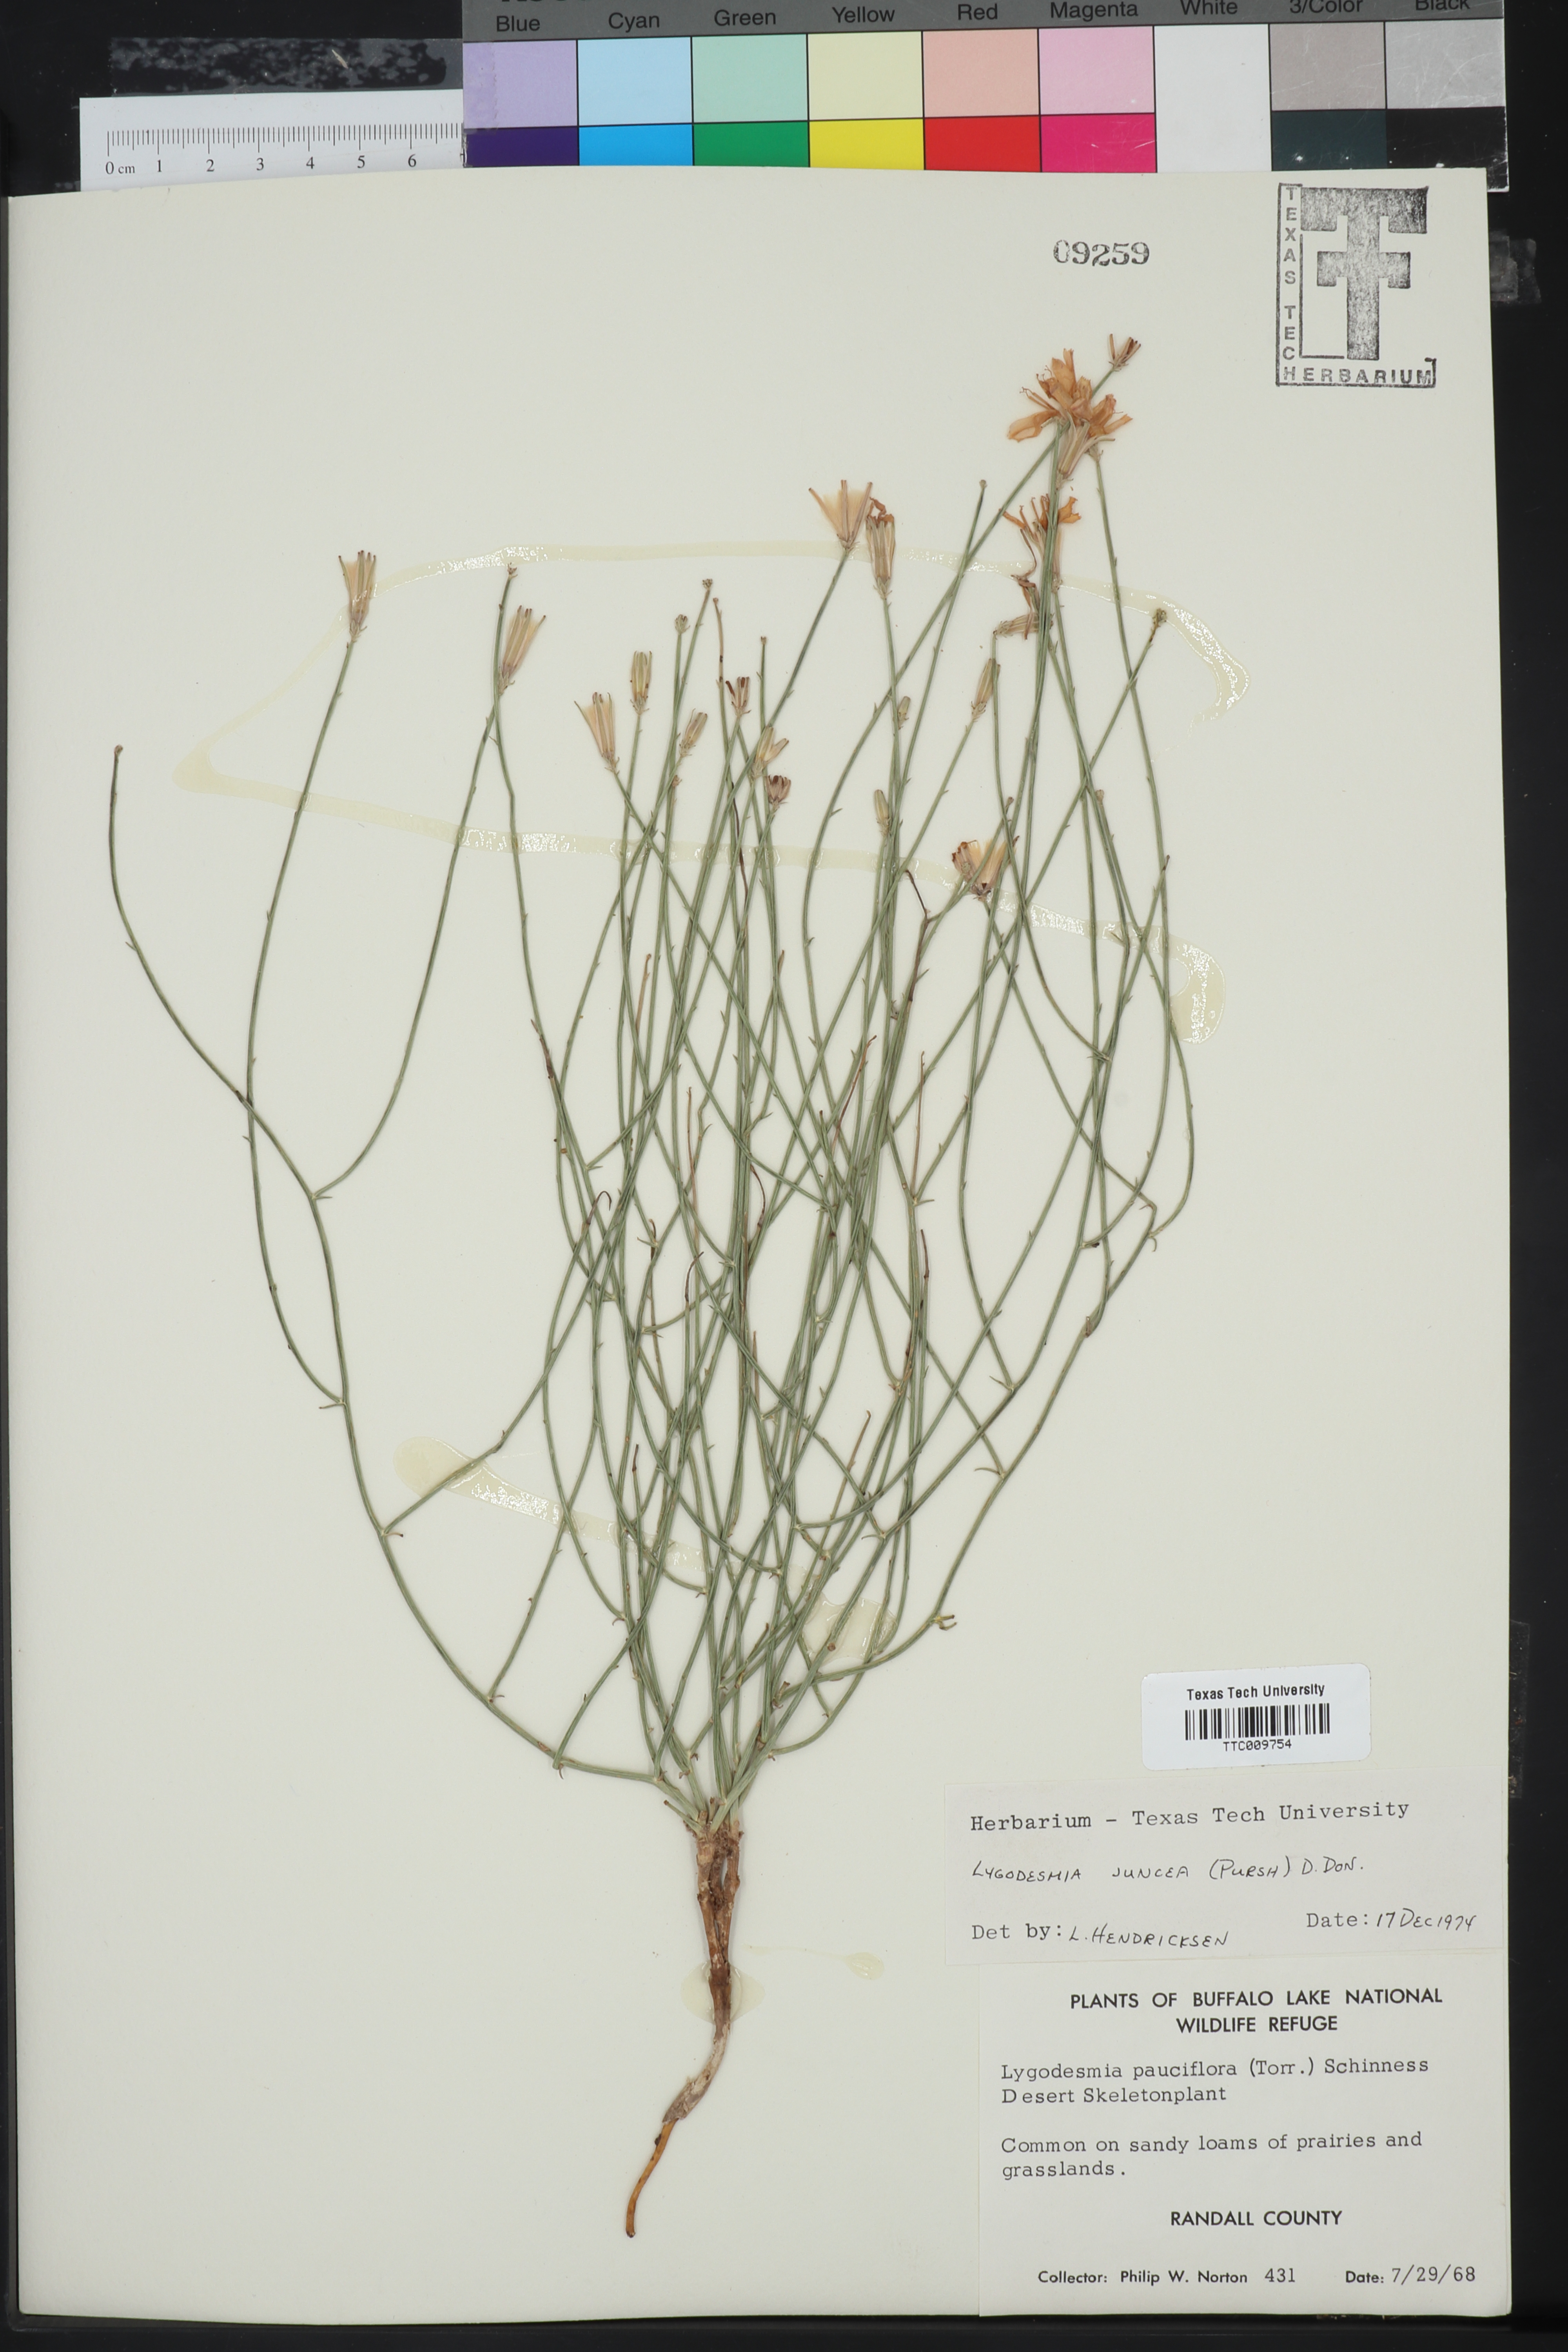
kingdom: Plantae
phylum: Tracheophyta
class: Magnoliopsida
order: Asterales
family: Asteraceae
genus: Lygodesmia
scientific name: Lygodesmia juncea
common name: Common skeletonweed
